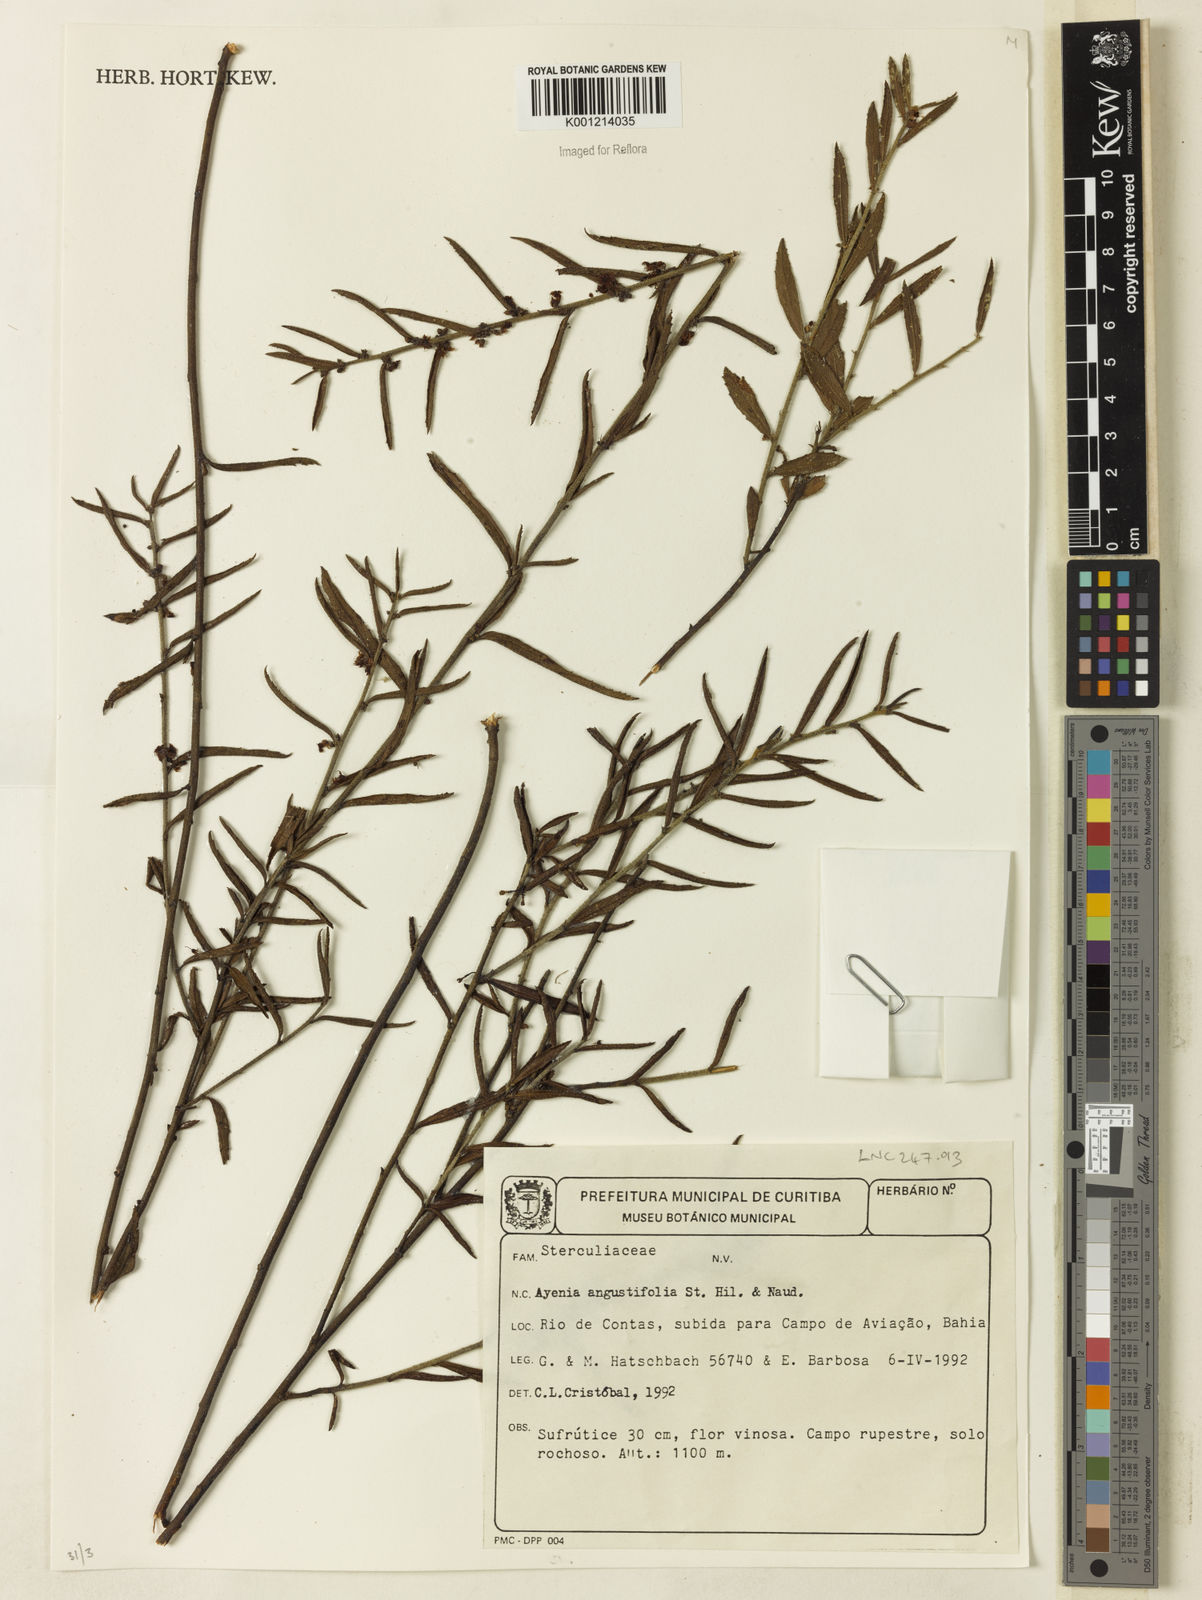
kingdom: Plantae
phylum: Tracheophyta
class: Magnoliopsida
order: Malvales
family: Malvaceae
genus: Ayenia
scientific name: Ayenia angustifolia
